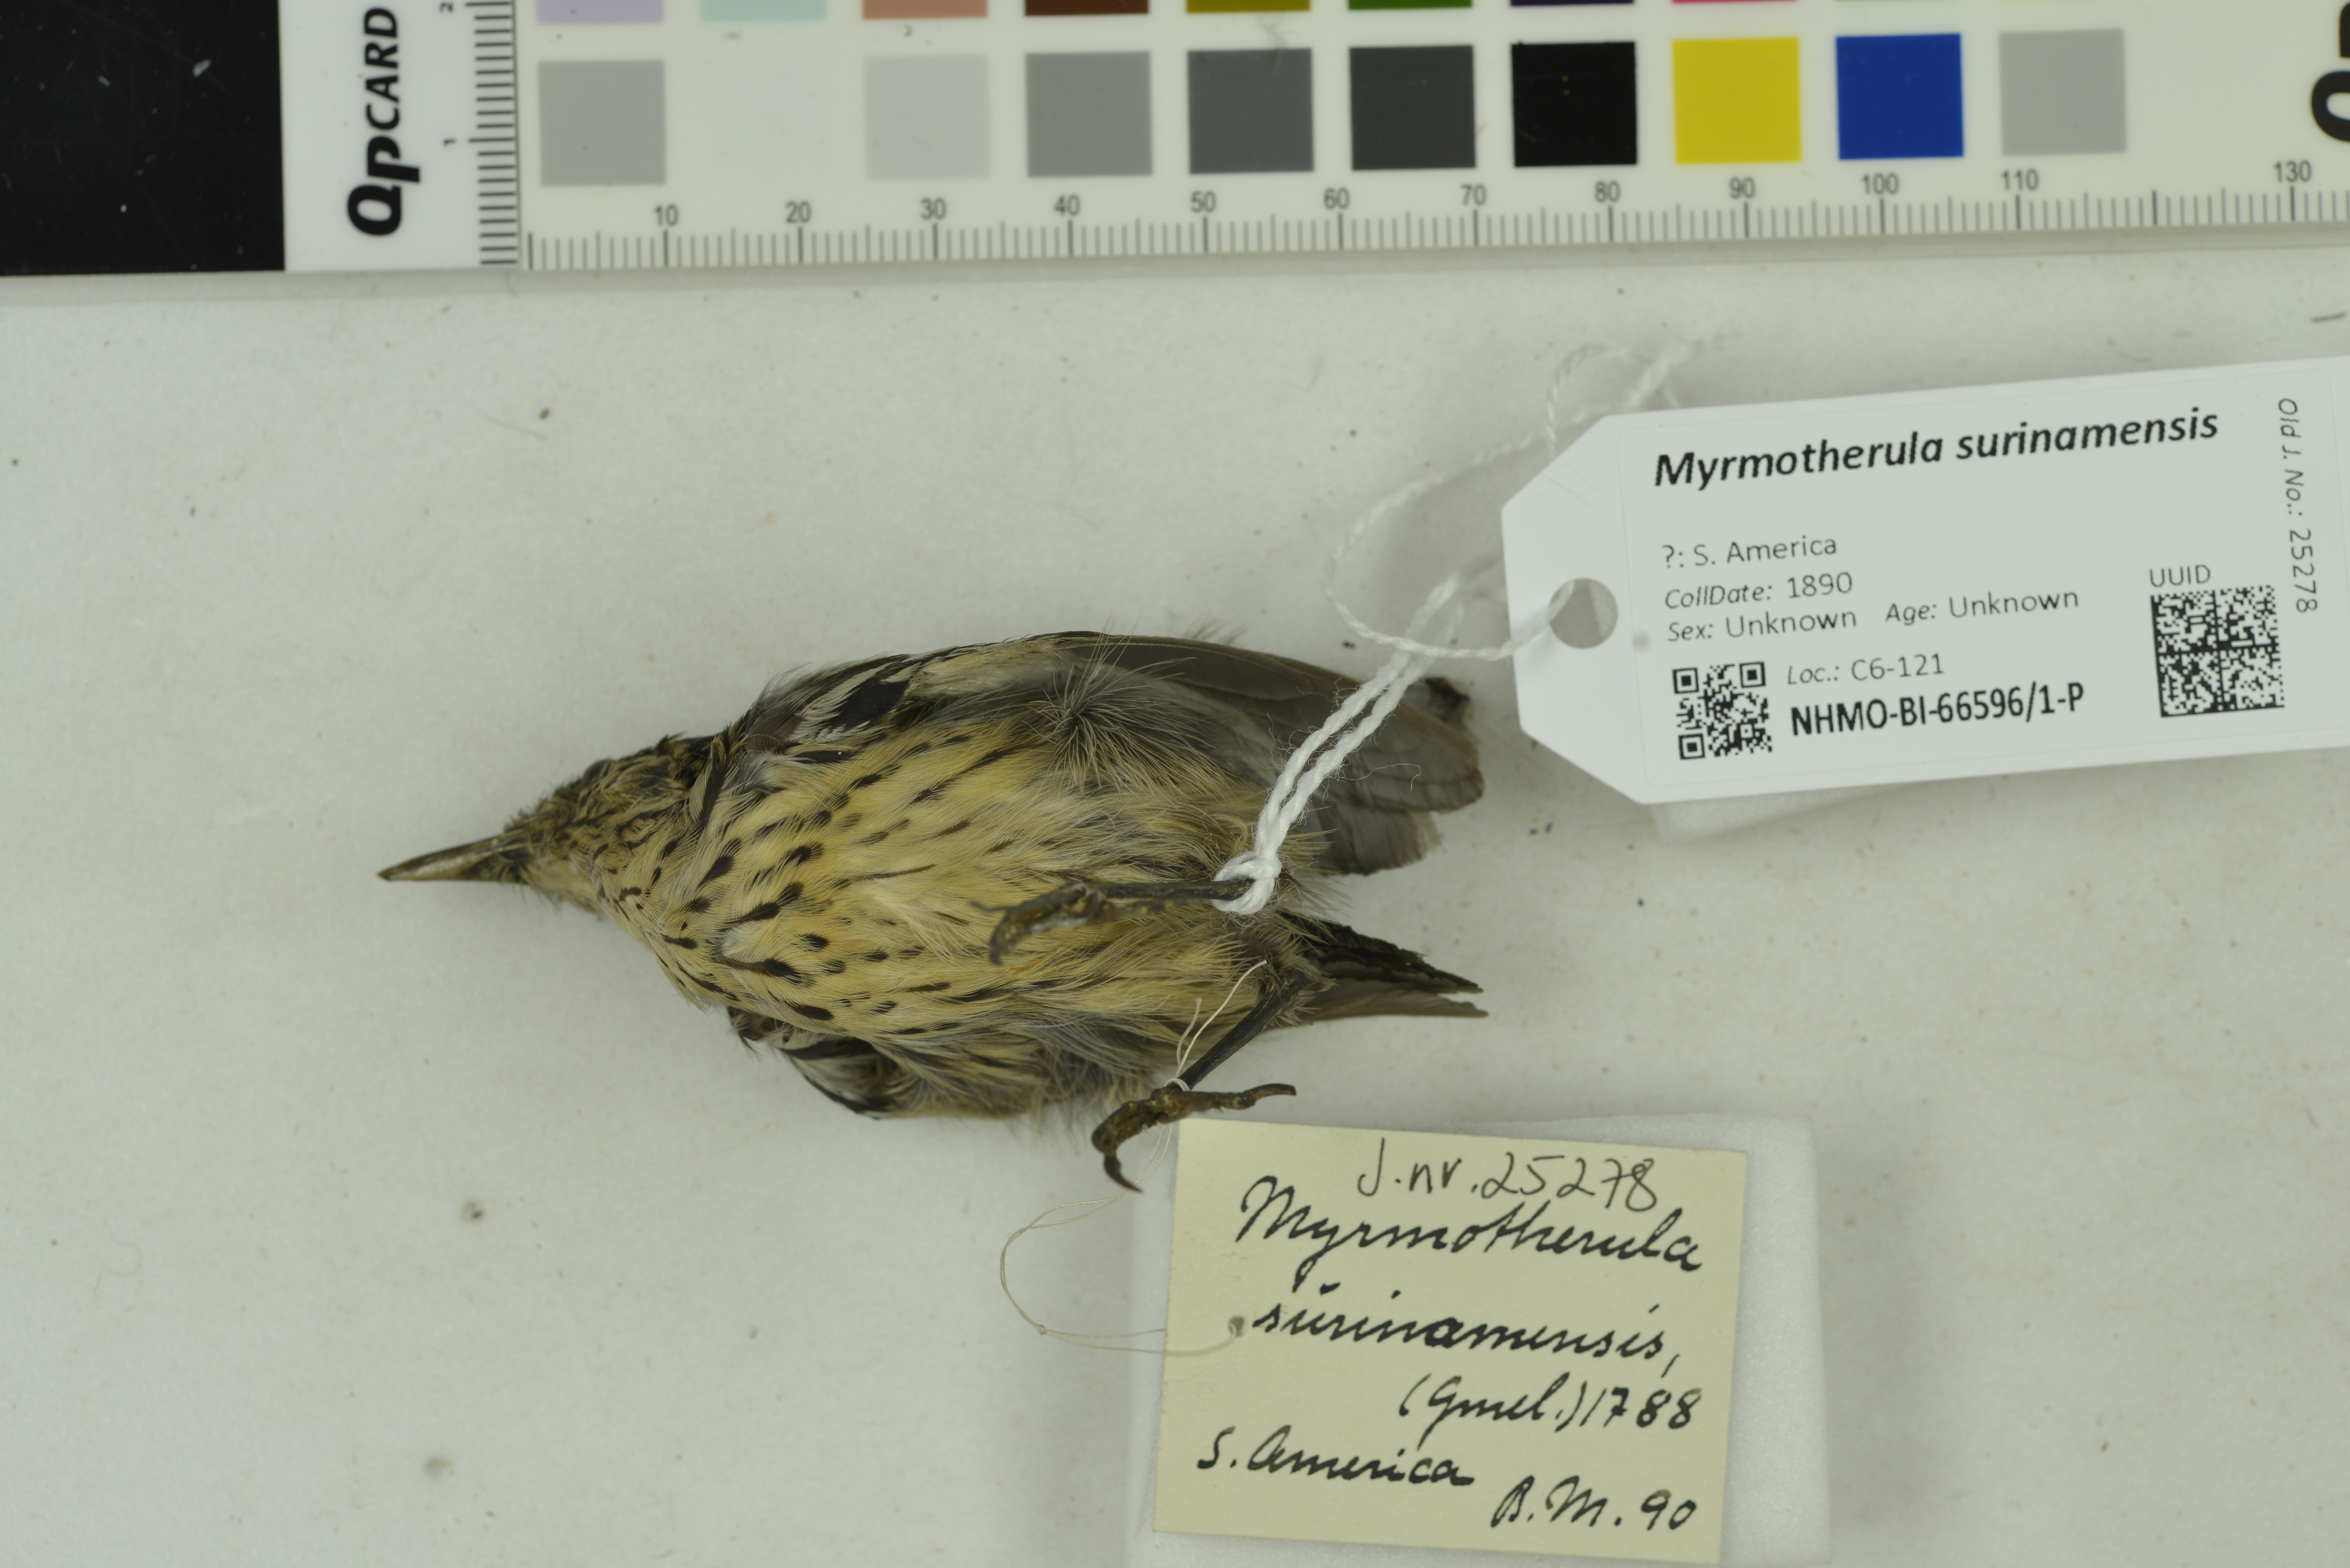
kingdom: Animalia
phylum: Chordata
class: Aves
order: Passeriformes
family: Thamnophilidae
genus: Myrmotherula
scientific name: Myrmotherula surinamensis
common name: Guianan streaked antwren
